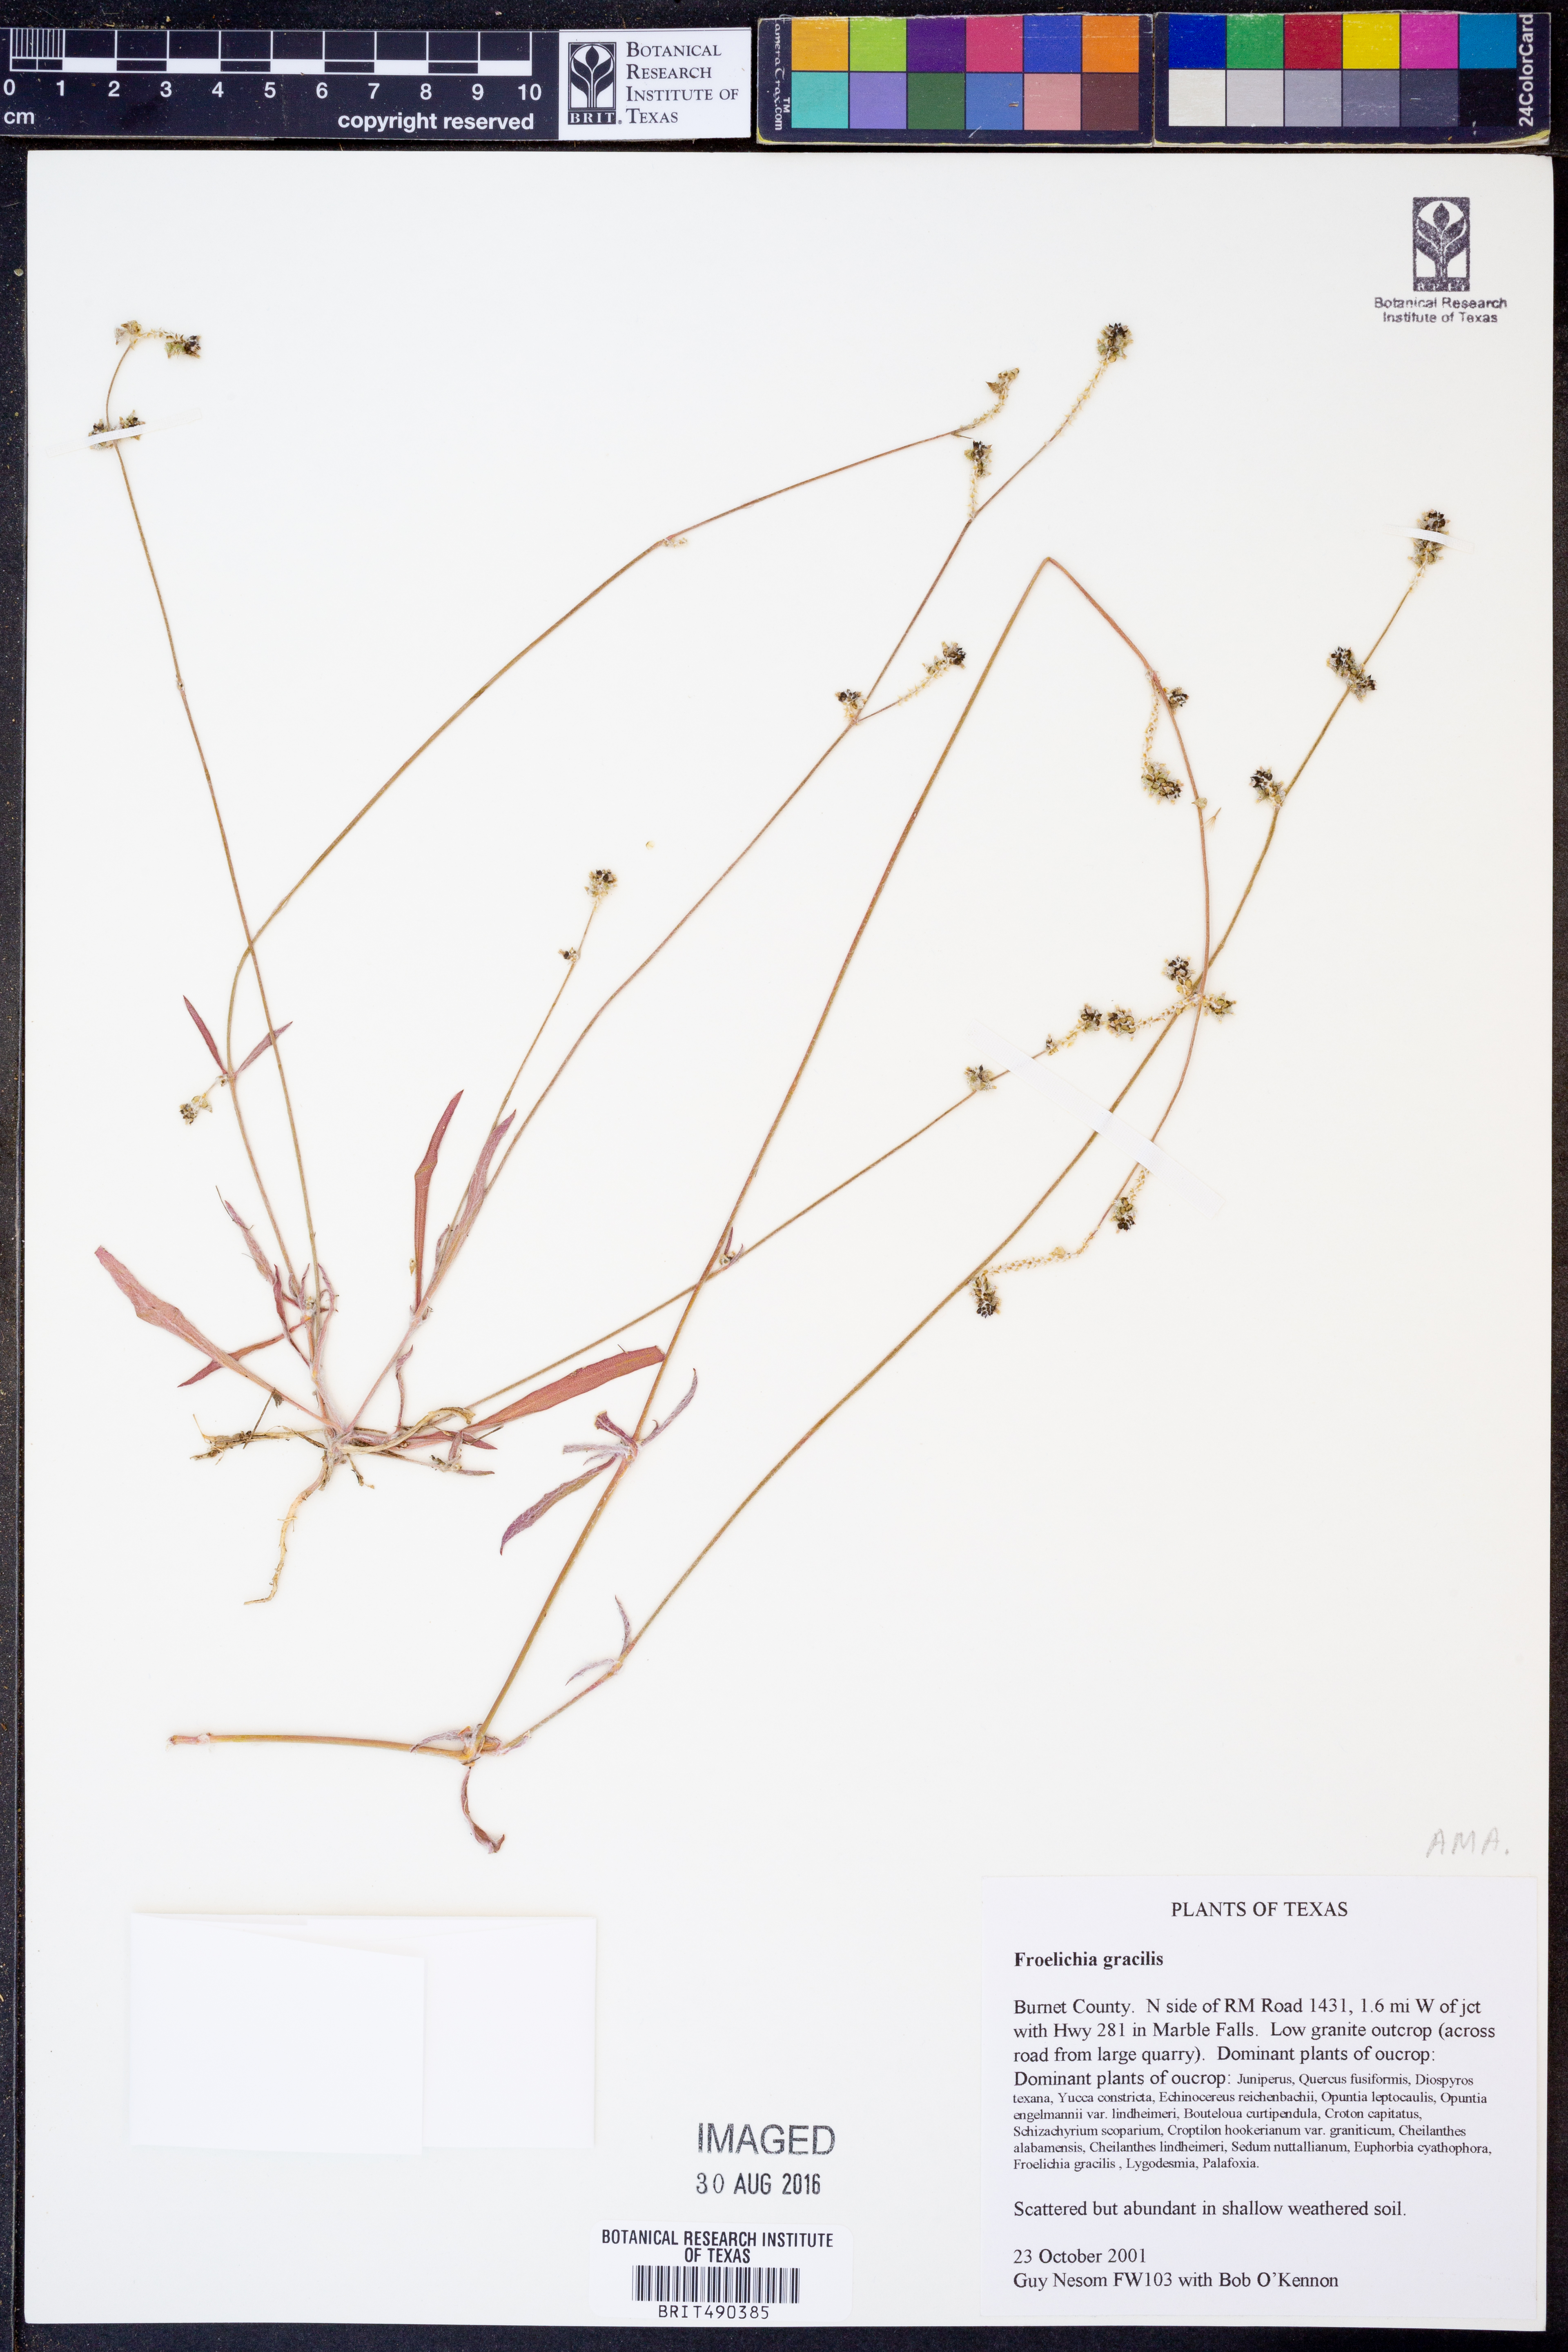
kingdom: Plantae
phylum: Tracheophyta
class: Magnoliopsida
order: Caryophyllales
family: Amaranthaceae
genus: Froelichia
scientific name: Froelichia gracilis
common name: Slender cottonweed
